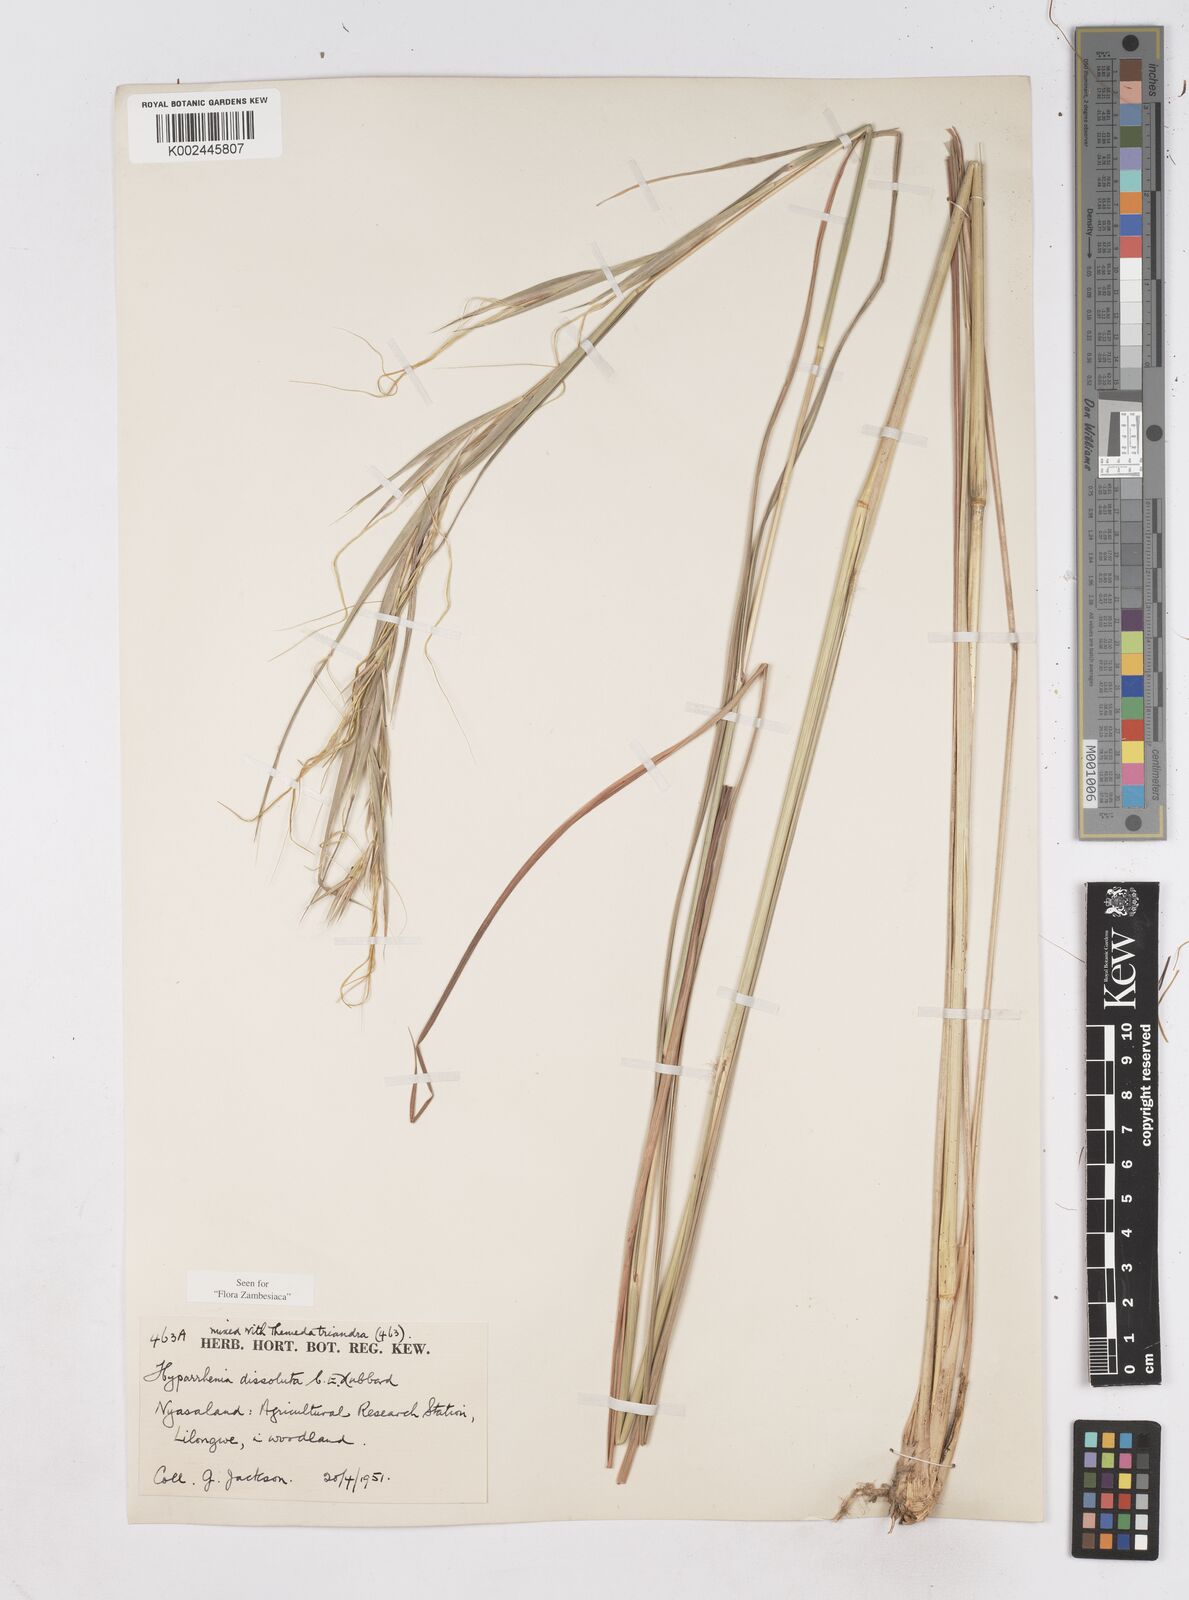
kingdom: Plantae
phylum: Tracheophyta
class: Liliopsida
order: Poales
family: Poaceae
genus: Hyperthelia
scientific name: Hyperthelia dissoluta
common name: Yellow thatching grass
